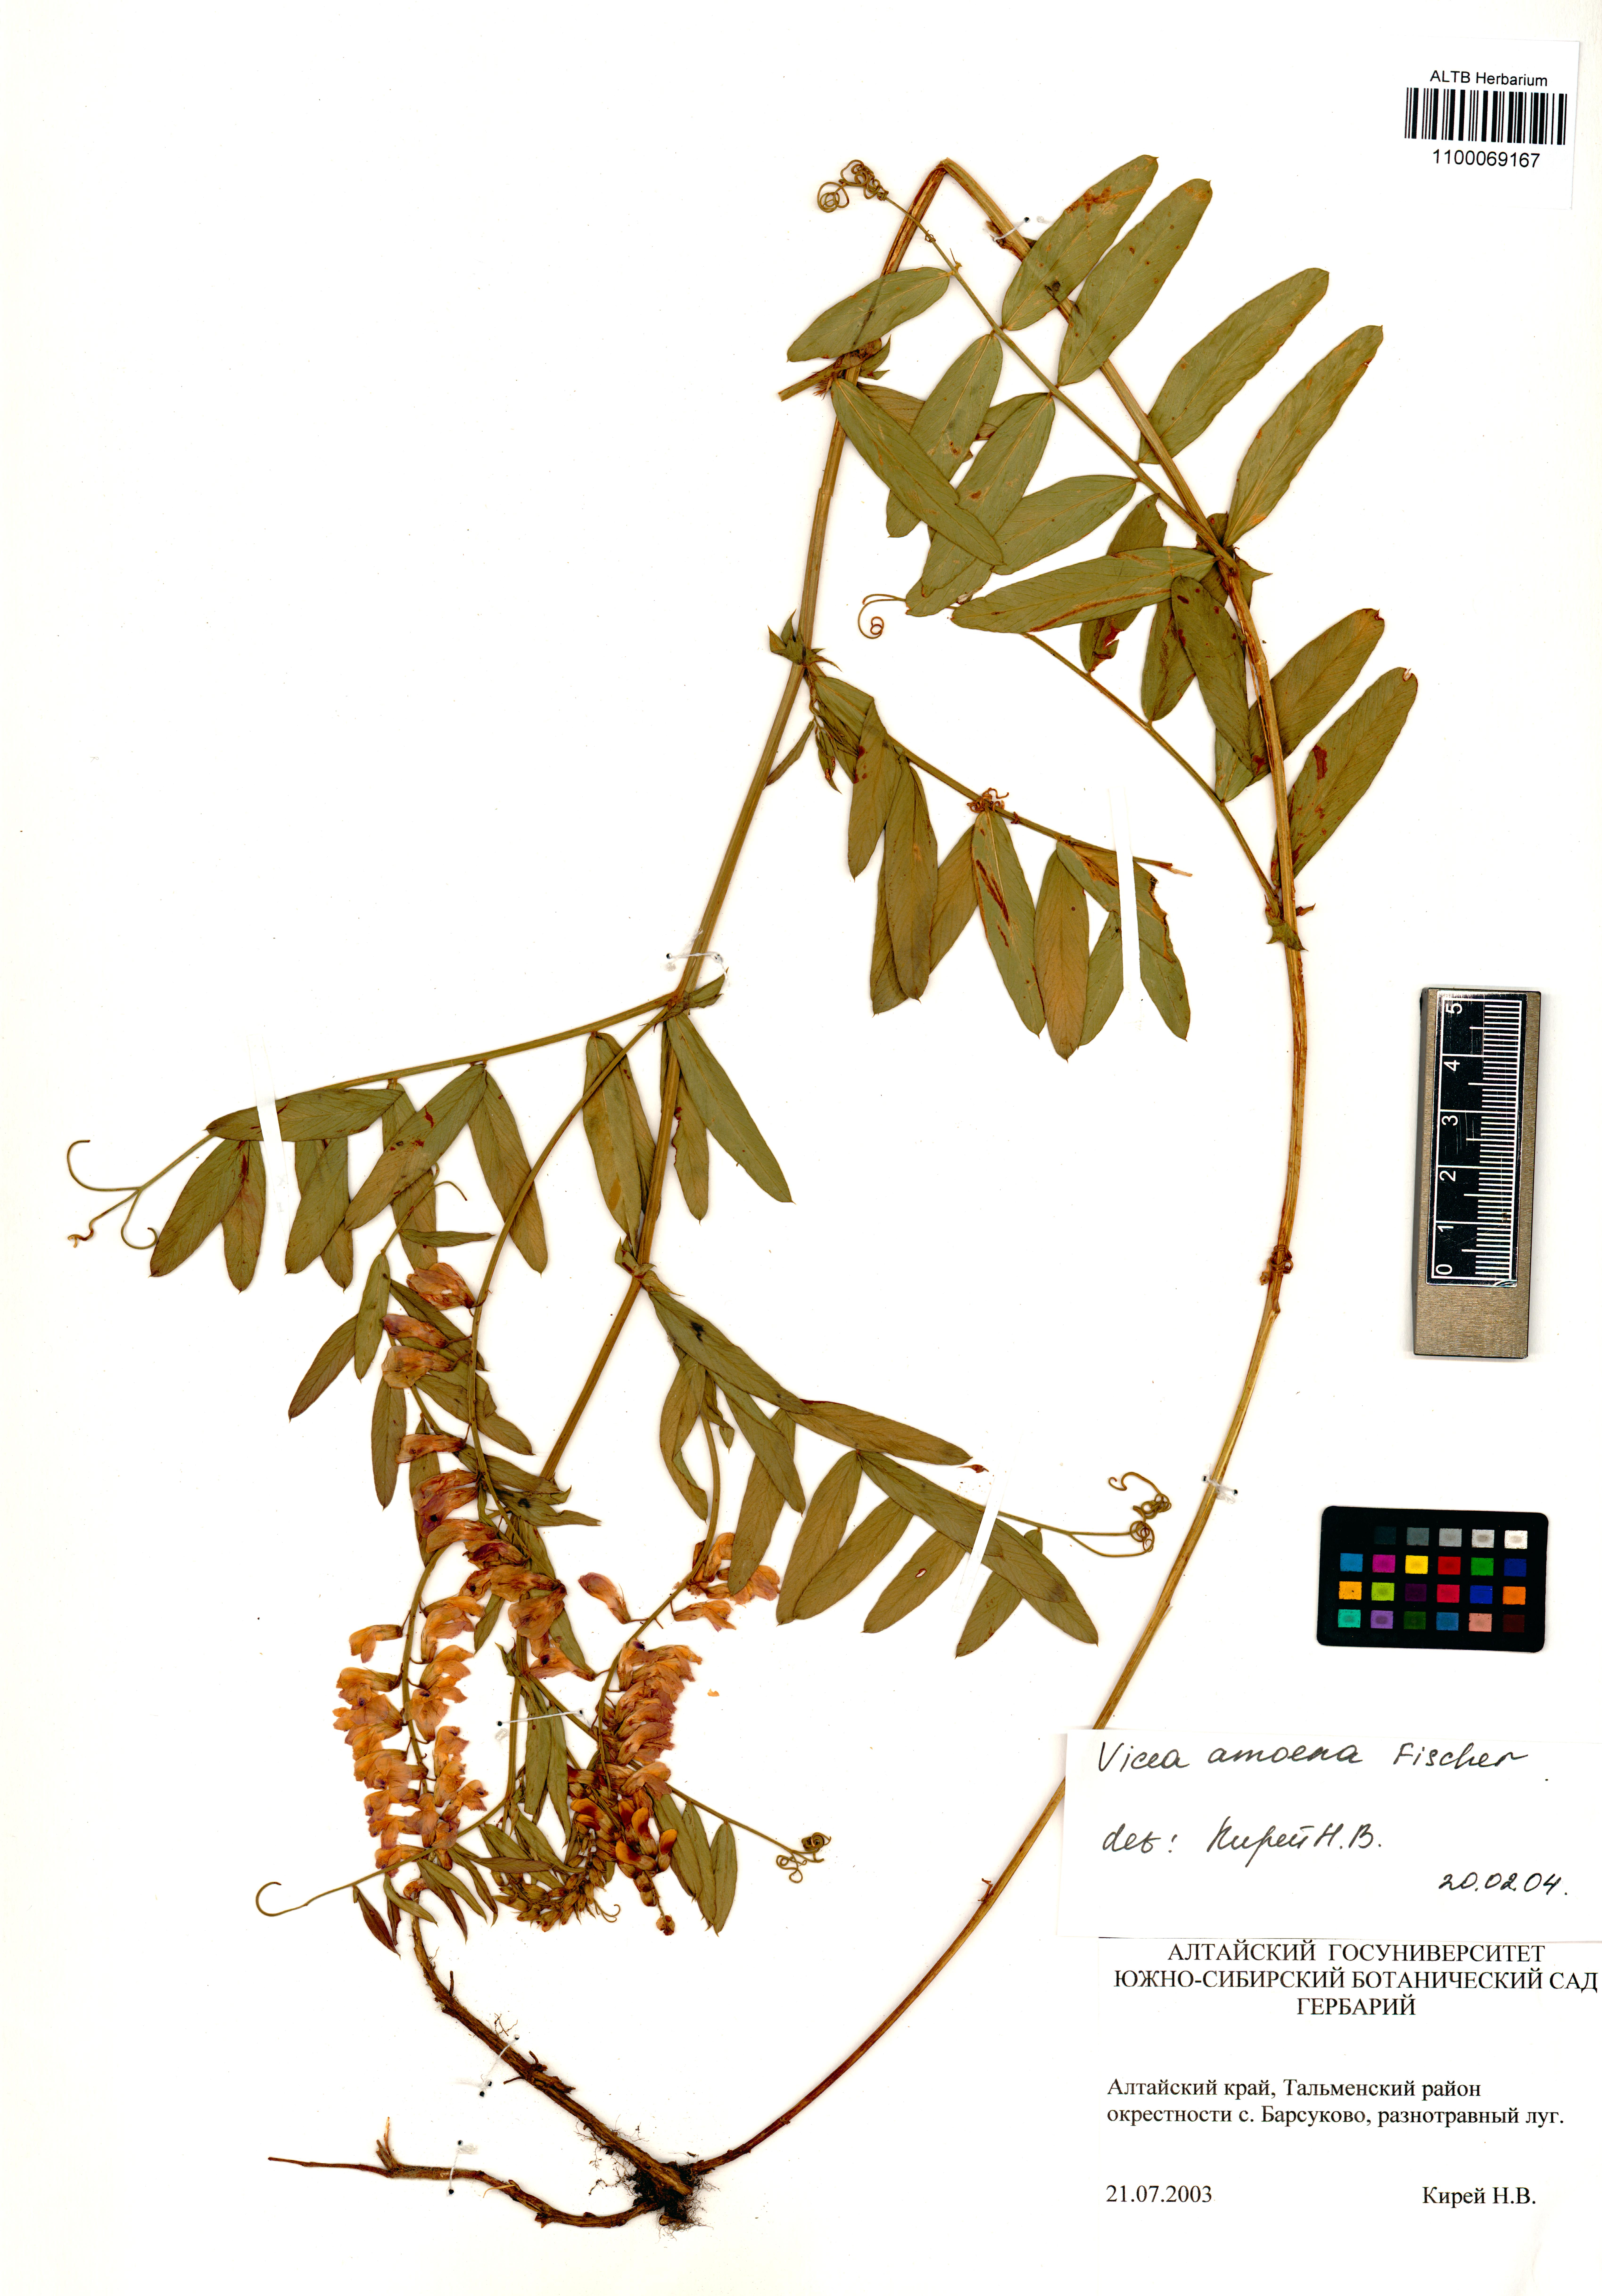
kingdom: Plantae
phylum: Tracheophyta
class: Magnoliopsida
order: Fabales
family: Fabaceae
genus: Vicia
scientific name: Vicia amoena
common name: Cheder ebs
